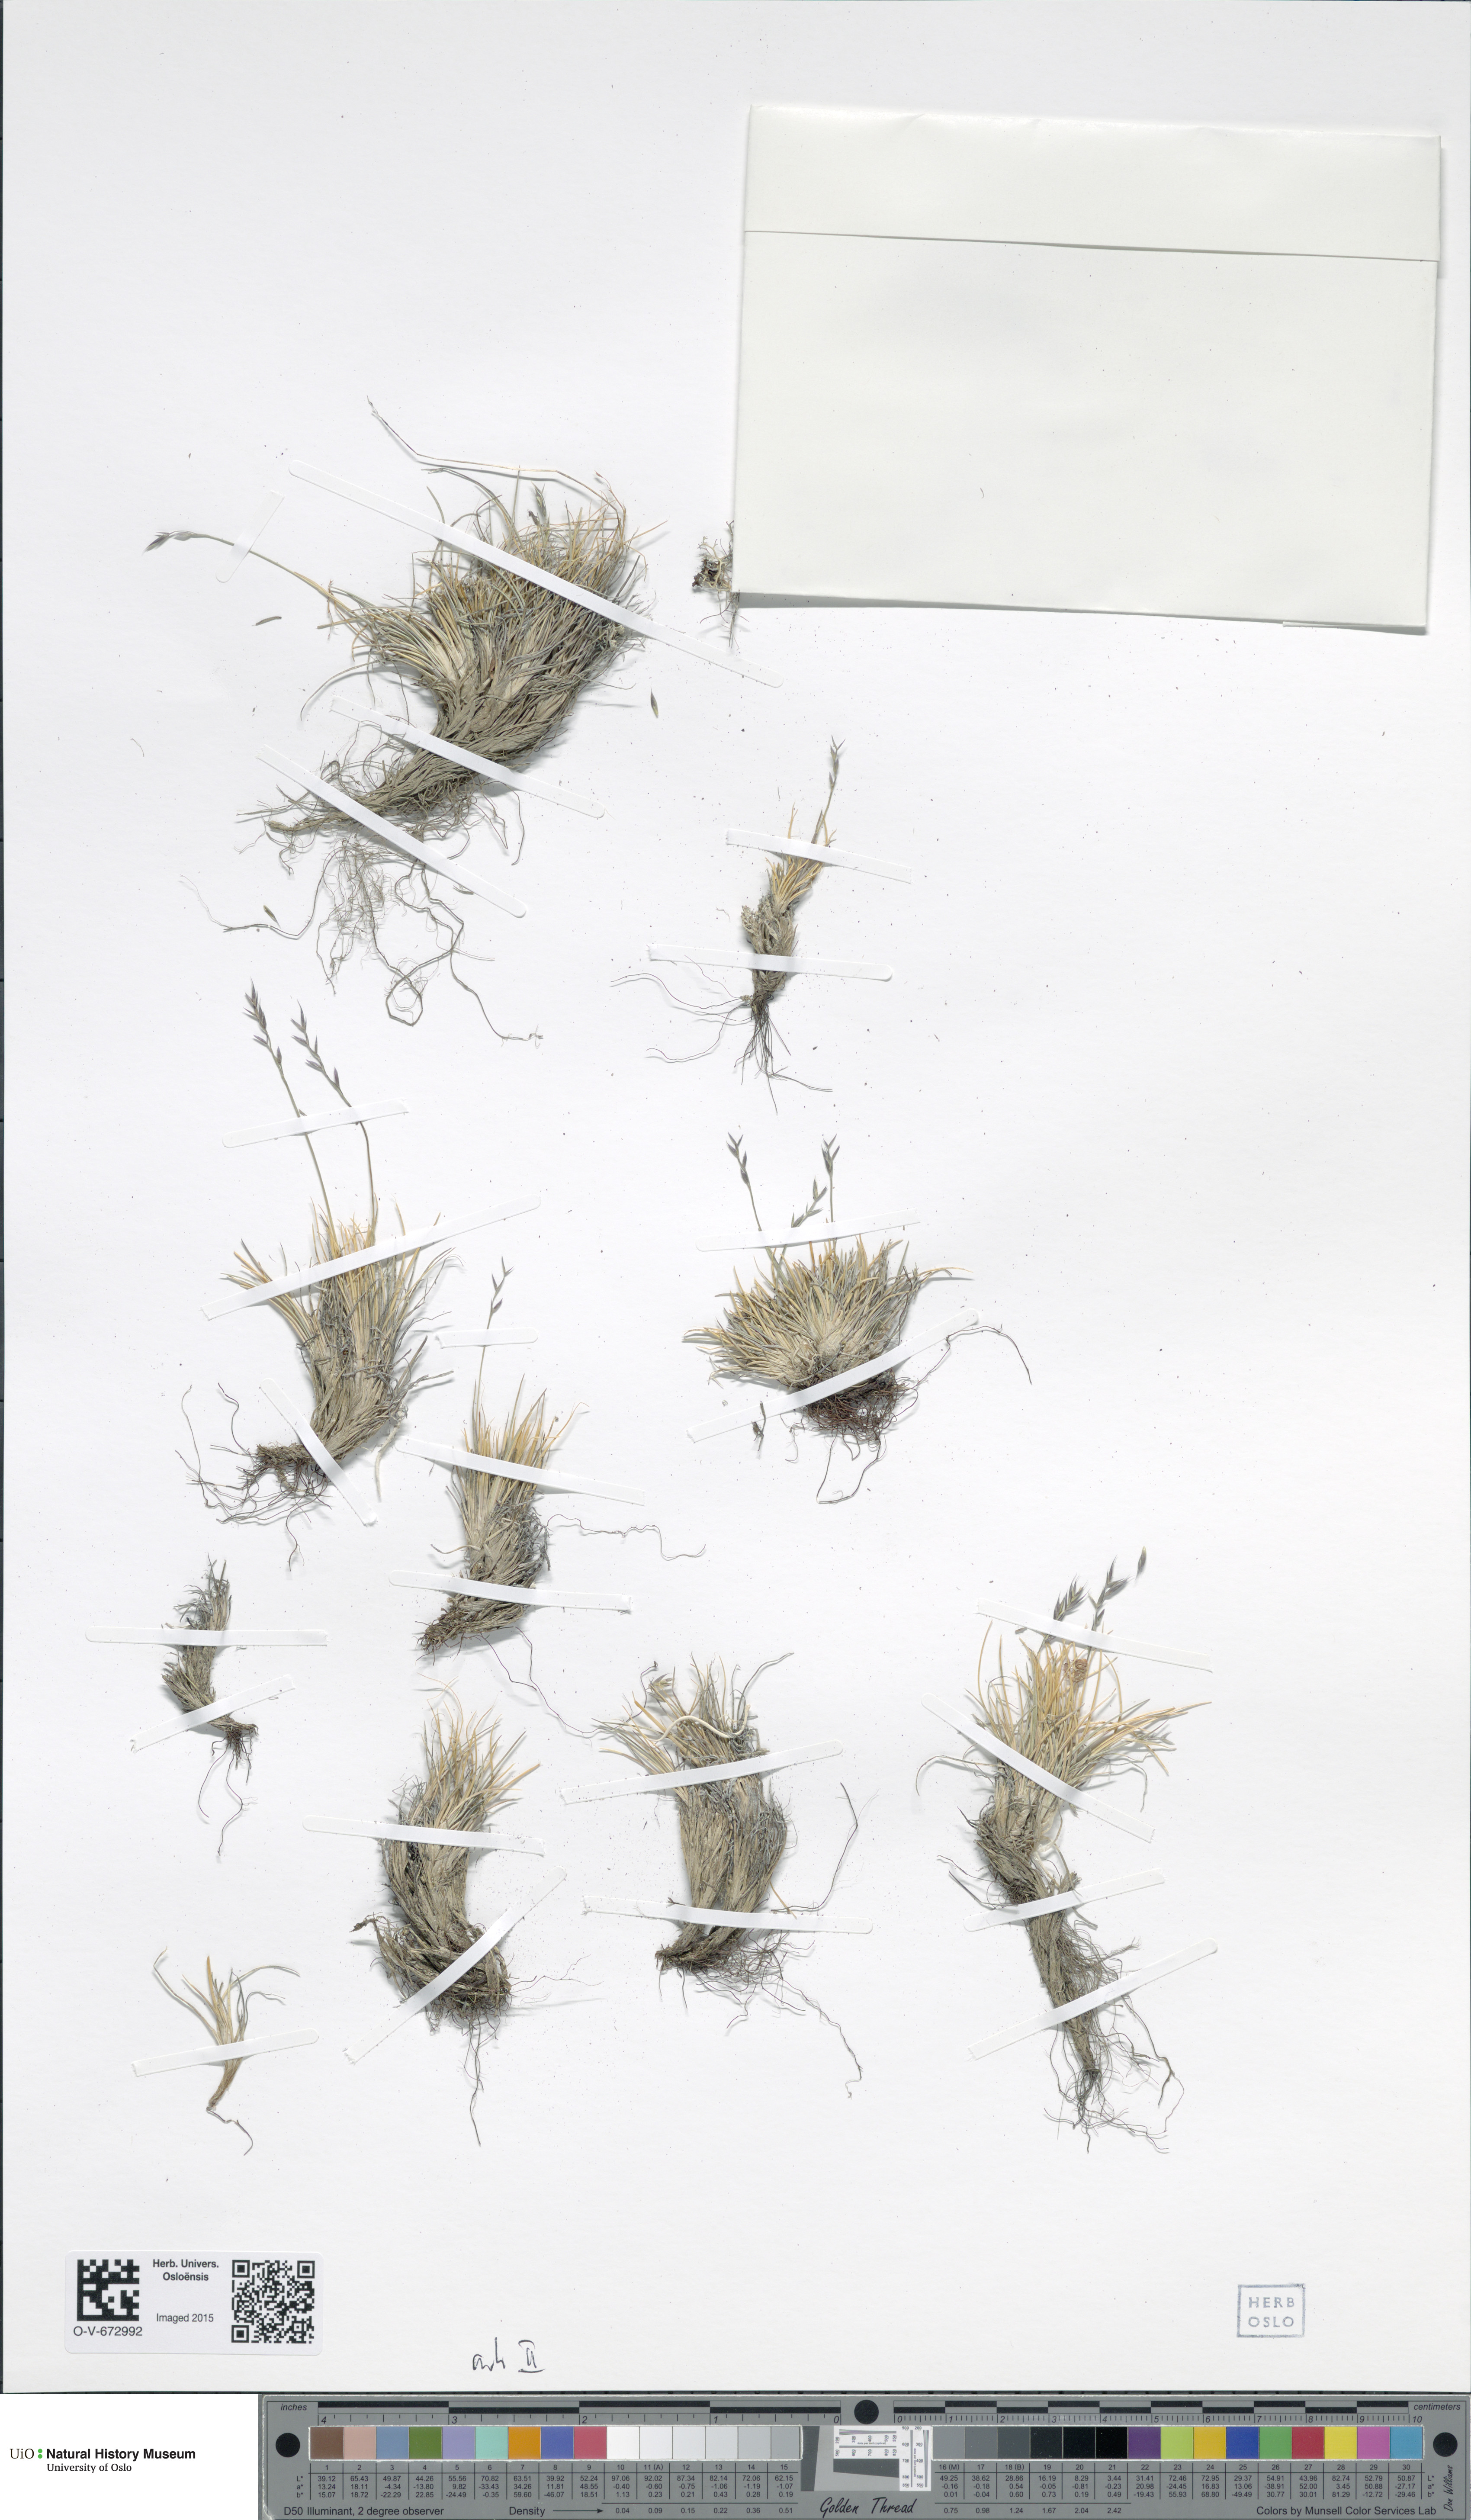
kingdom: Plantae
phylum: Tracheophyta
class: Liliopsida
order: Poales
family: Poaceae
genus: Festuca
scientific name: Festuca brevissima
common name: Alaska fescue
